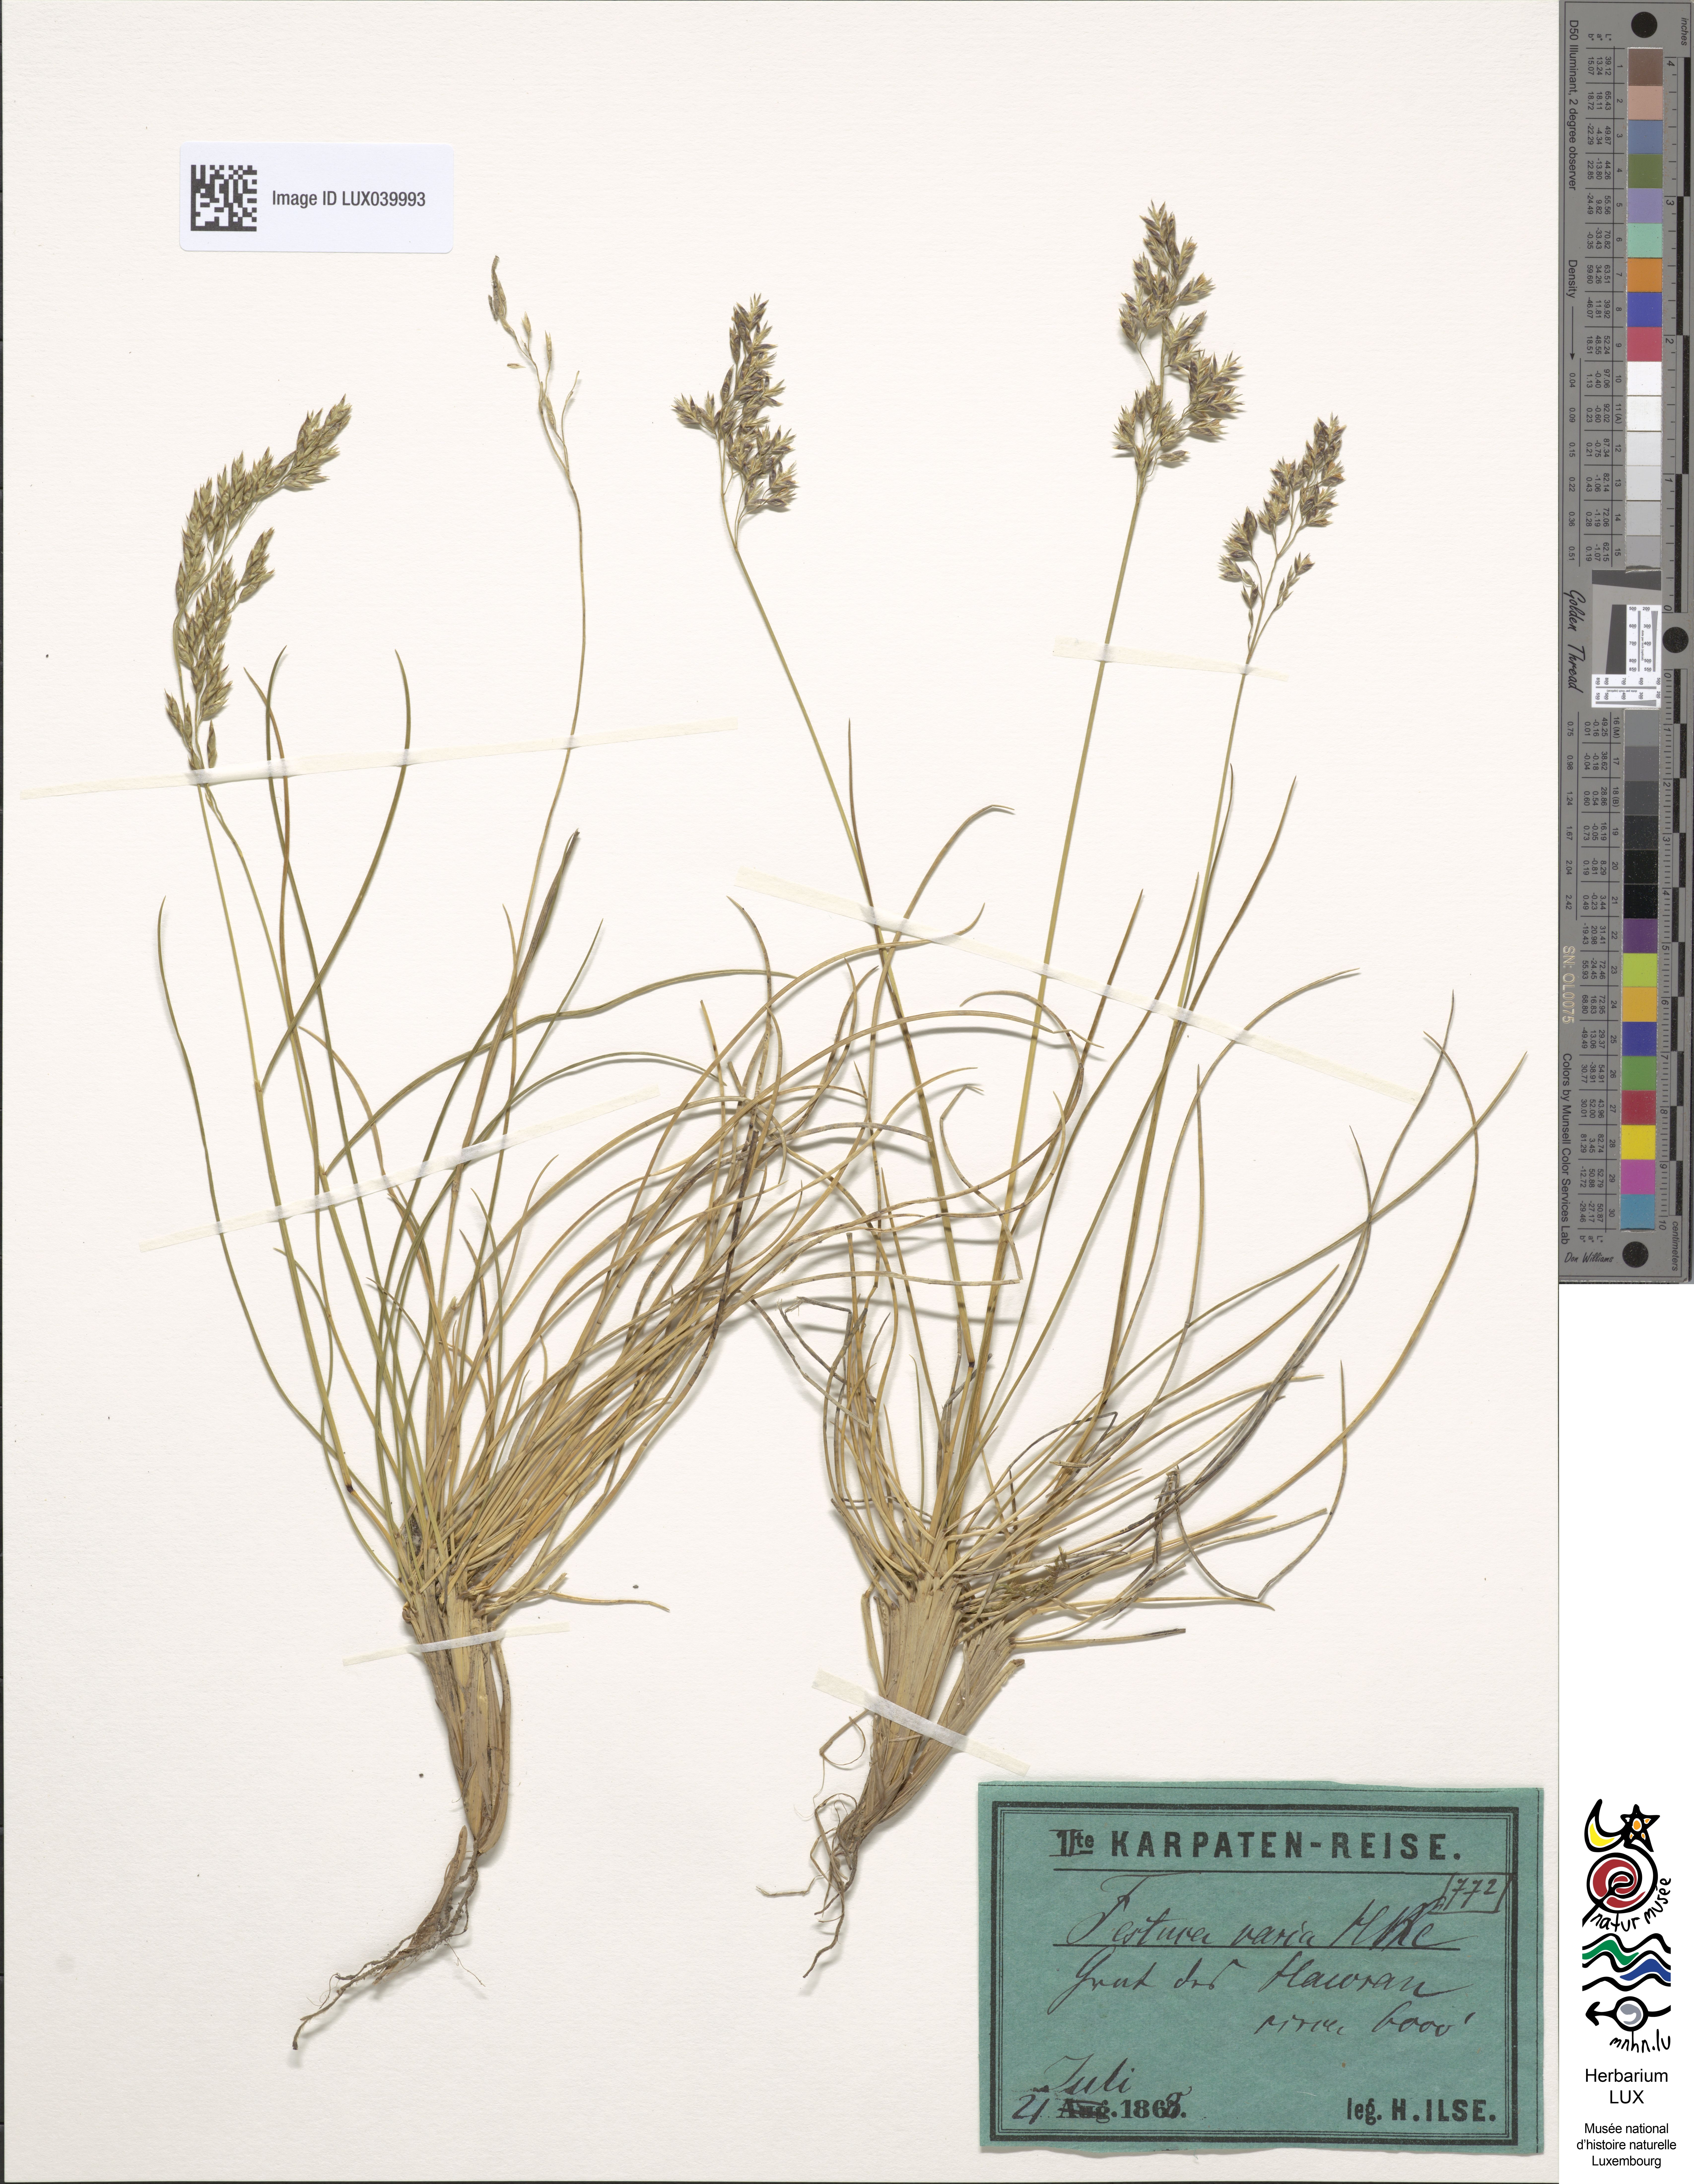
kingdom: Plantae
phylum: Tracheophyta
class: Liliopsida
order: Poales
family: Poaceae
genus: Festuca
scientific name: Festuca varia
